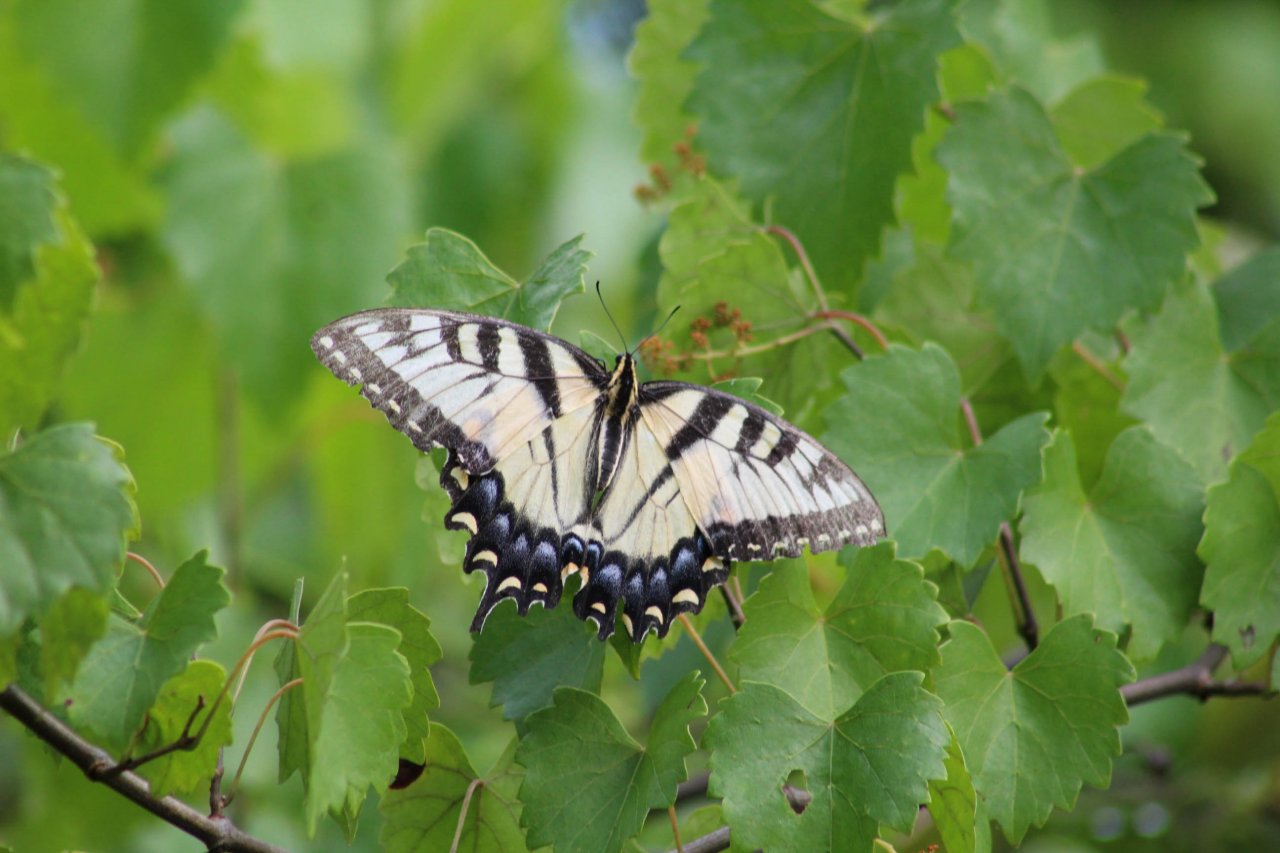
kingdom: Animalia
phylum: Arthropoda
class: Insecta
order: Lepidoptera
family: Papilionidae
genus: Pterourus
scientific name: Pterourus glaucus
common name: Eastern Tiger Swallowtail
